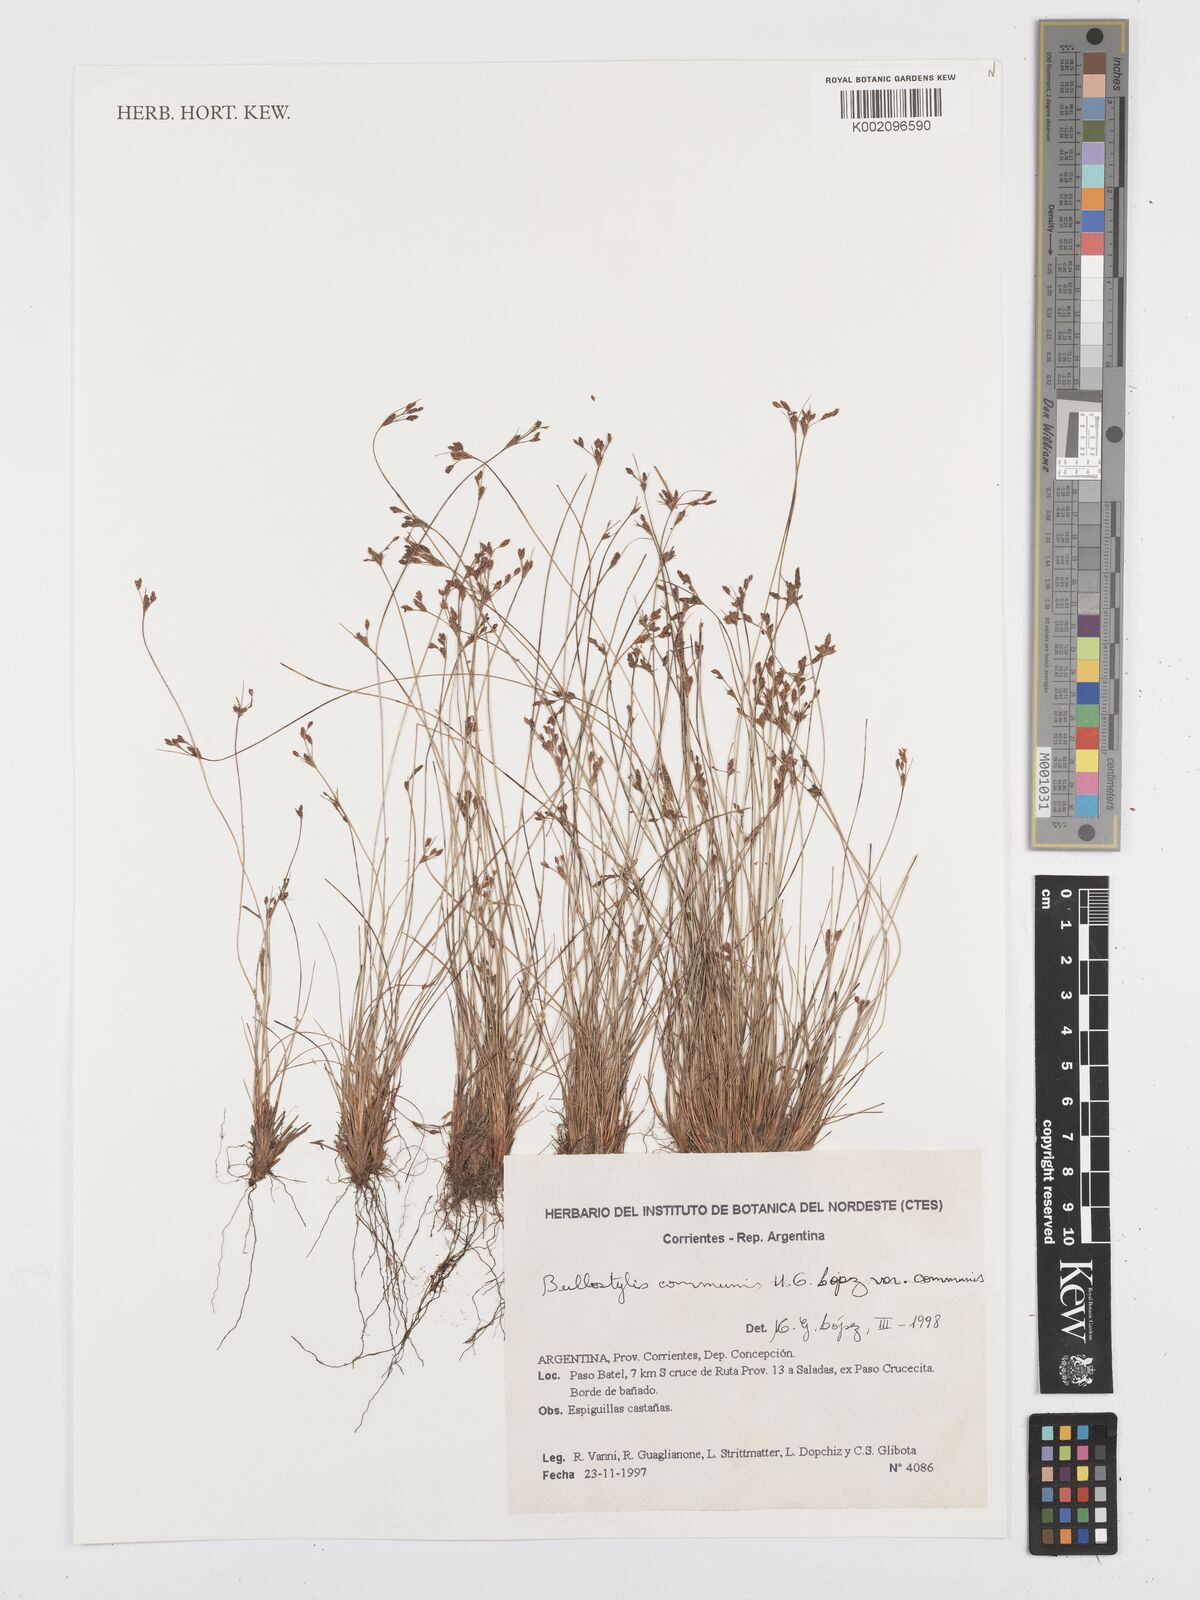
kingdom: Plantae
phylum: Tracheophyta
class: Liliopsida
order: Poales
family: Cyperaceae
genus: Bulbostylis
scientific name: Bulbostylis communis
